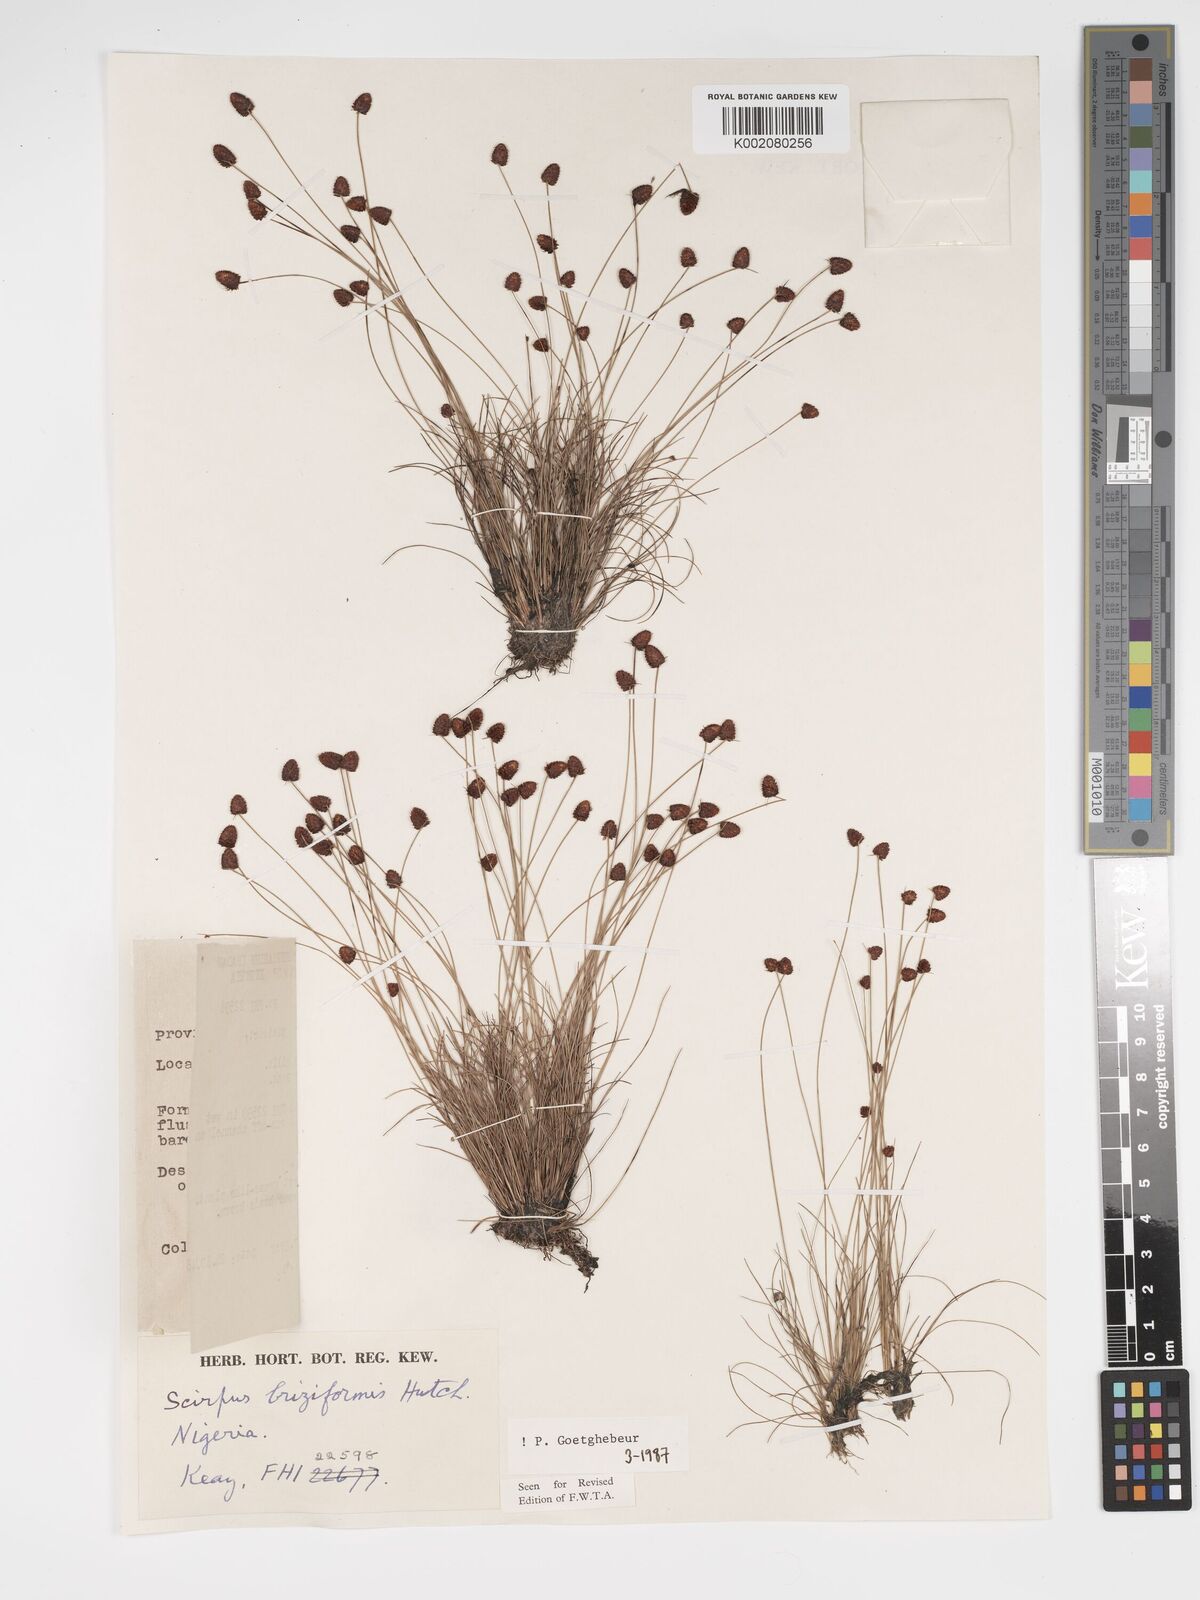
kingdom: Plantae
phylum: Tracheophyta
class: Liliopsida
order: Poales
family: Cyperaceae
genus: Bulbostylis
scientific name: Bulbostylis briziformis
